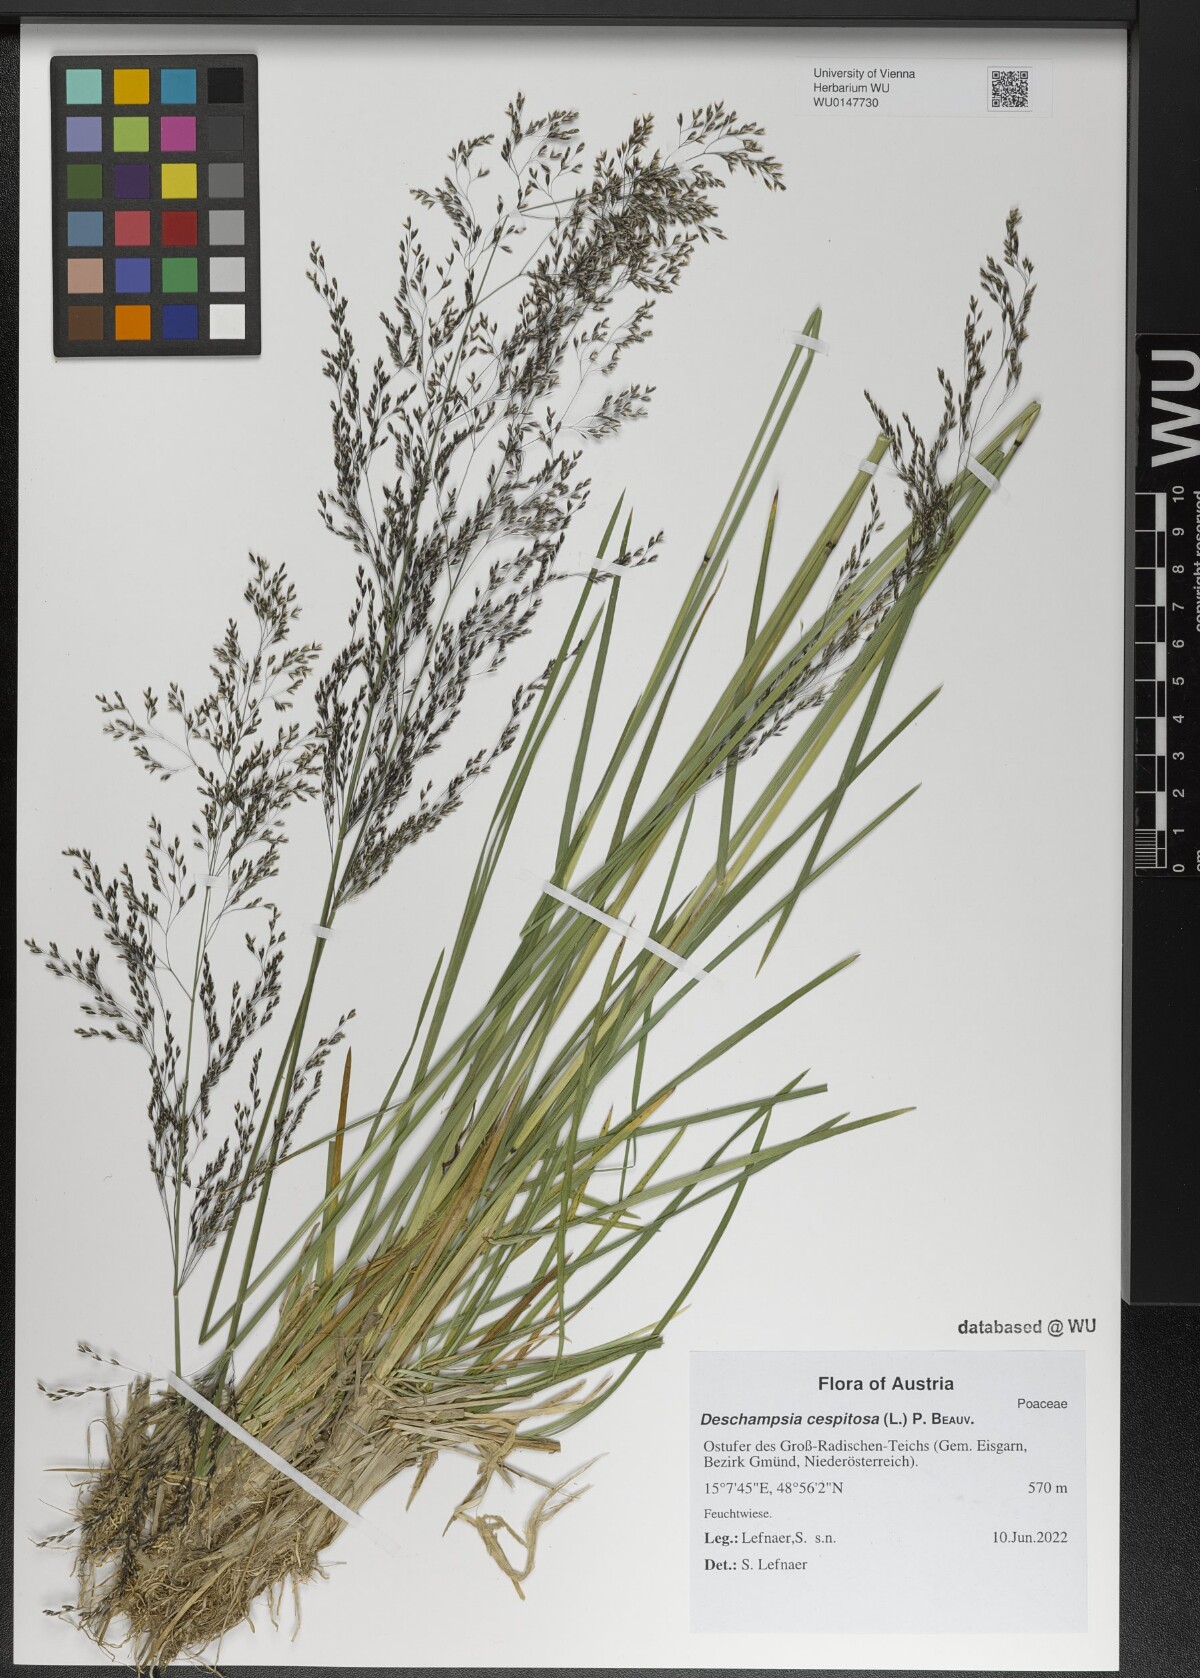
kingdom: Plantae
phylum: Tracheophyta
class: Liliopsida
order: Poales
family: Poaceae
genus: Deschampsia
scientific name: Deschampsia cespitosa
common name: Tufted hair-grass
